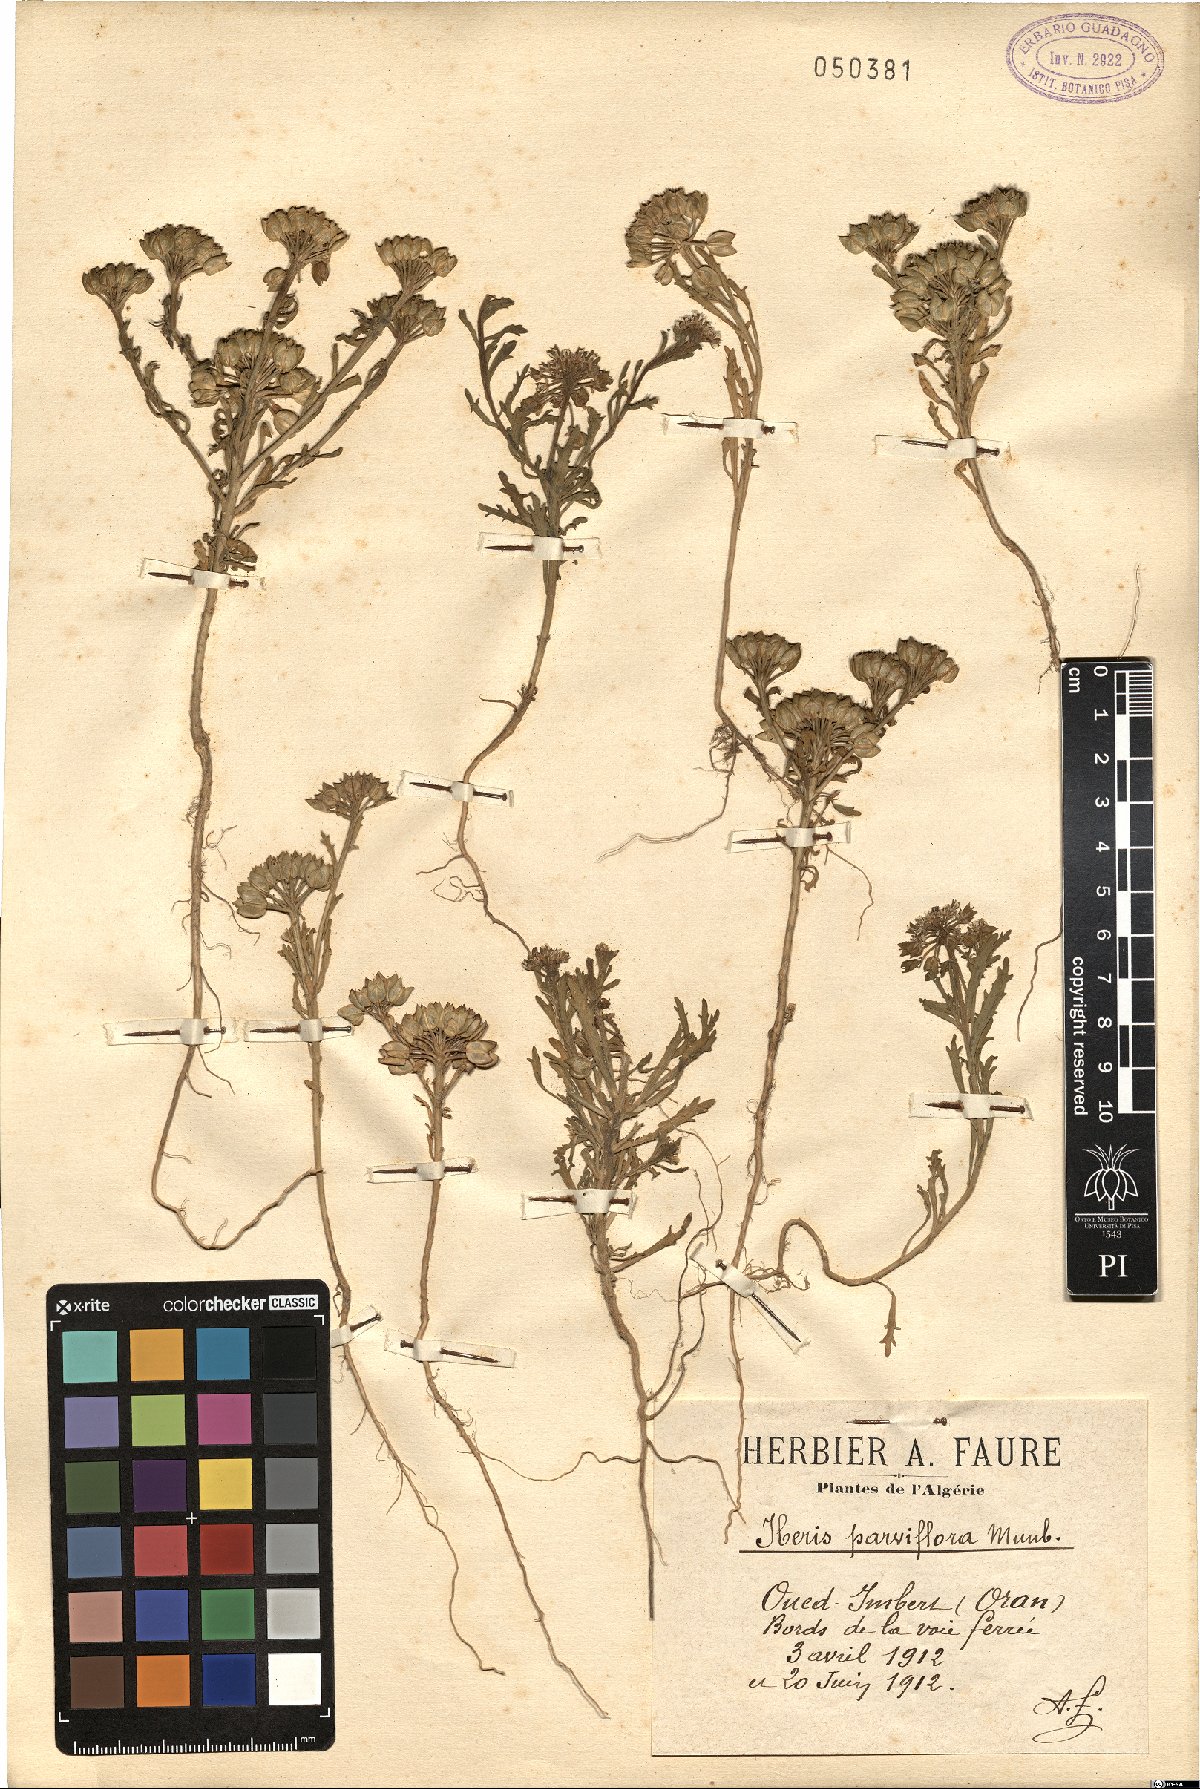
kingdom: Plantae
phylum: Tracheophyta
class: Magnoliopsida
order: Brassicales
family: Brassicaceae
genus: Iberis
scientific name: Iberis odorata
